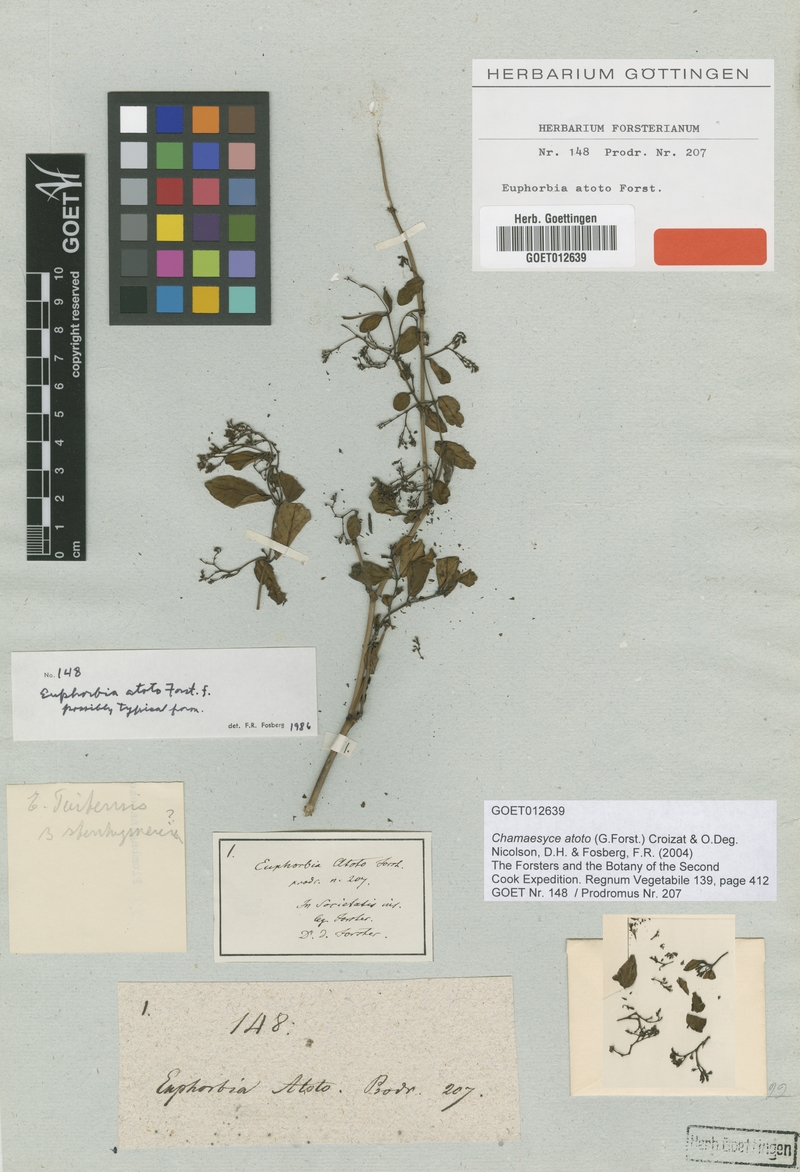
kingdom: Plantae
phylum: Tracheophyta
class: Magnoliopsida
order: Malpighiales
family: Euphorbiaceae
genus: Euphorbia
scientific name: Euphorbia atoto
